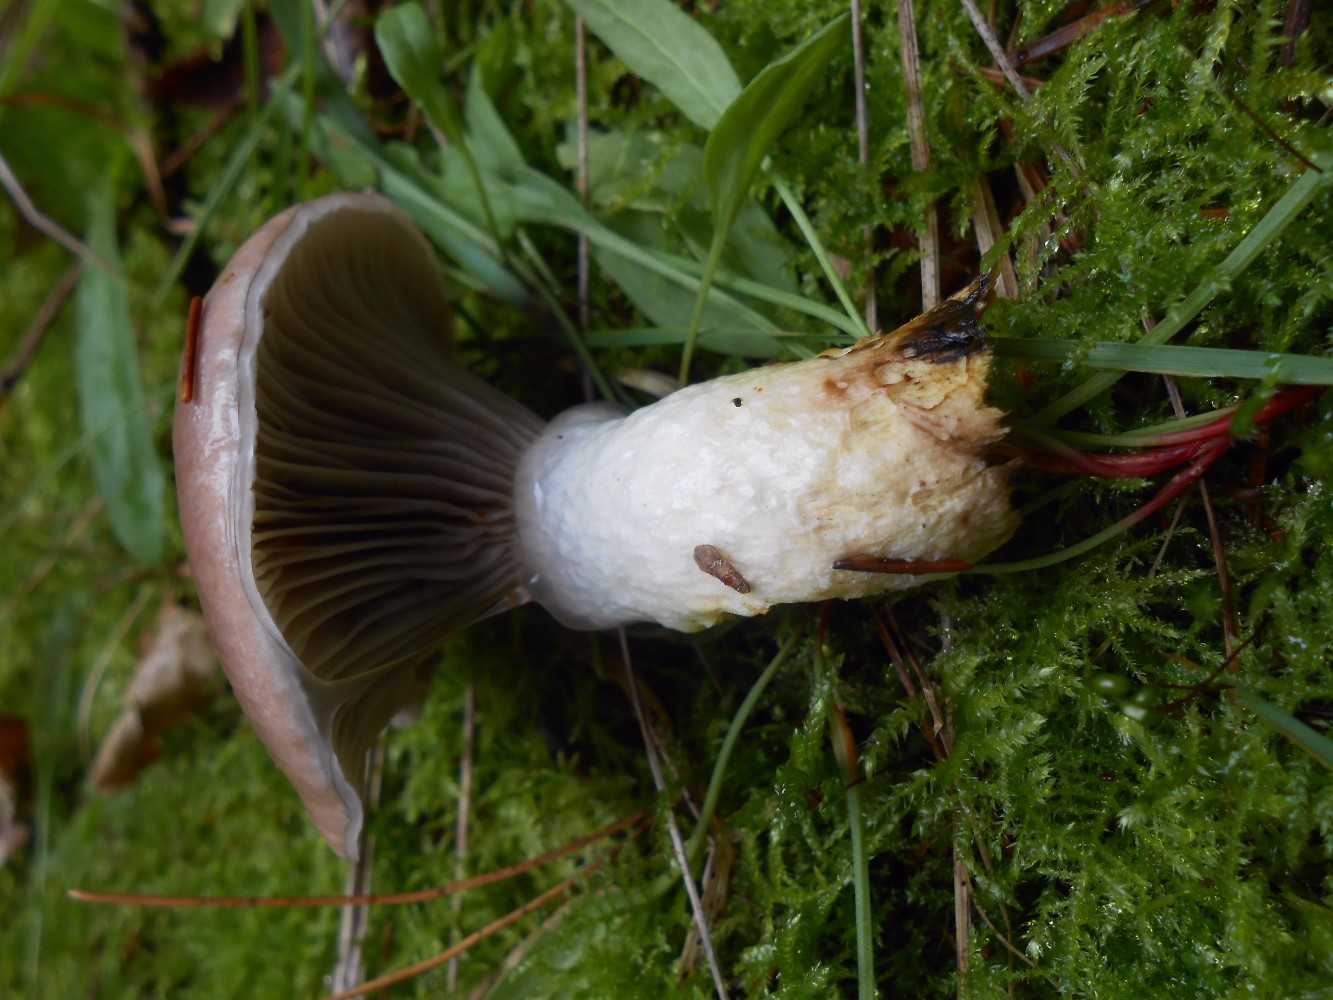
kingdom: Fungi
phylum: Basidiomycota
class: Agaricomycetes
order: Boletales
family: Gomphidiaceae
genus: Gomphidius
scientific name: Gomphidius glutinosus
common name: grå slimslør
